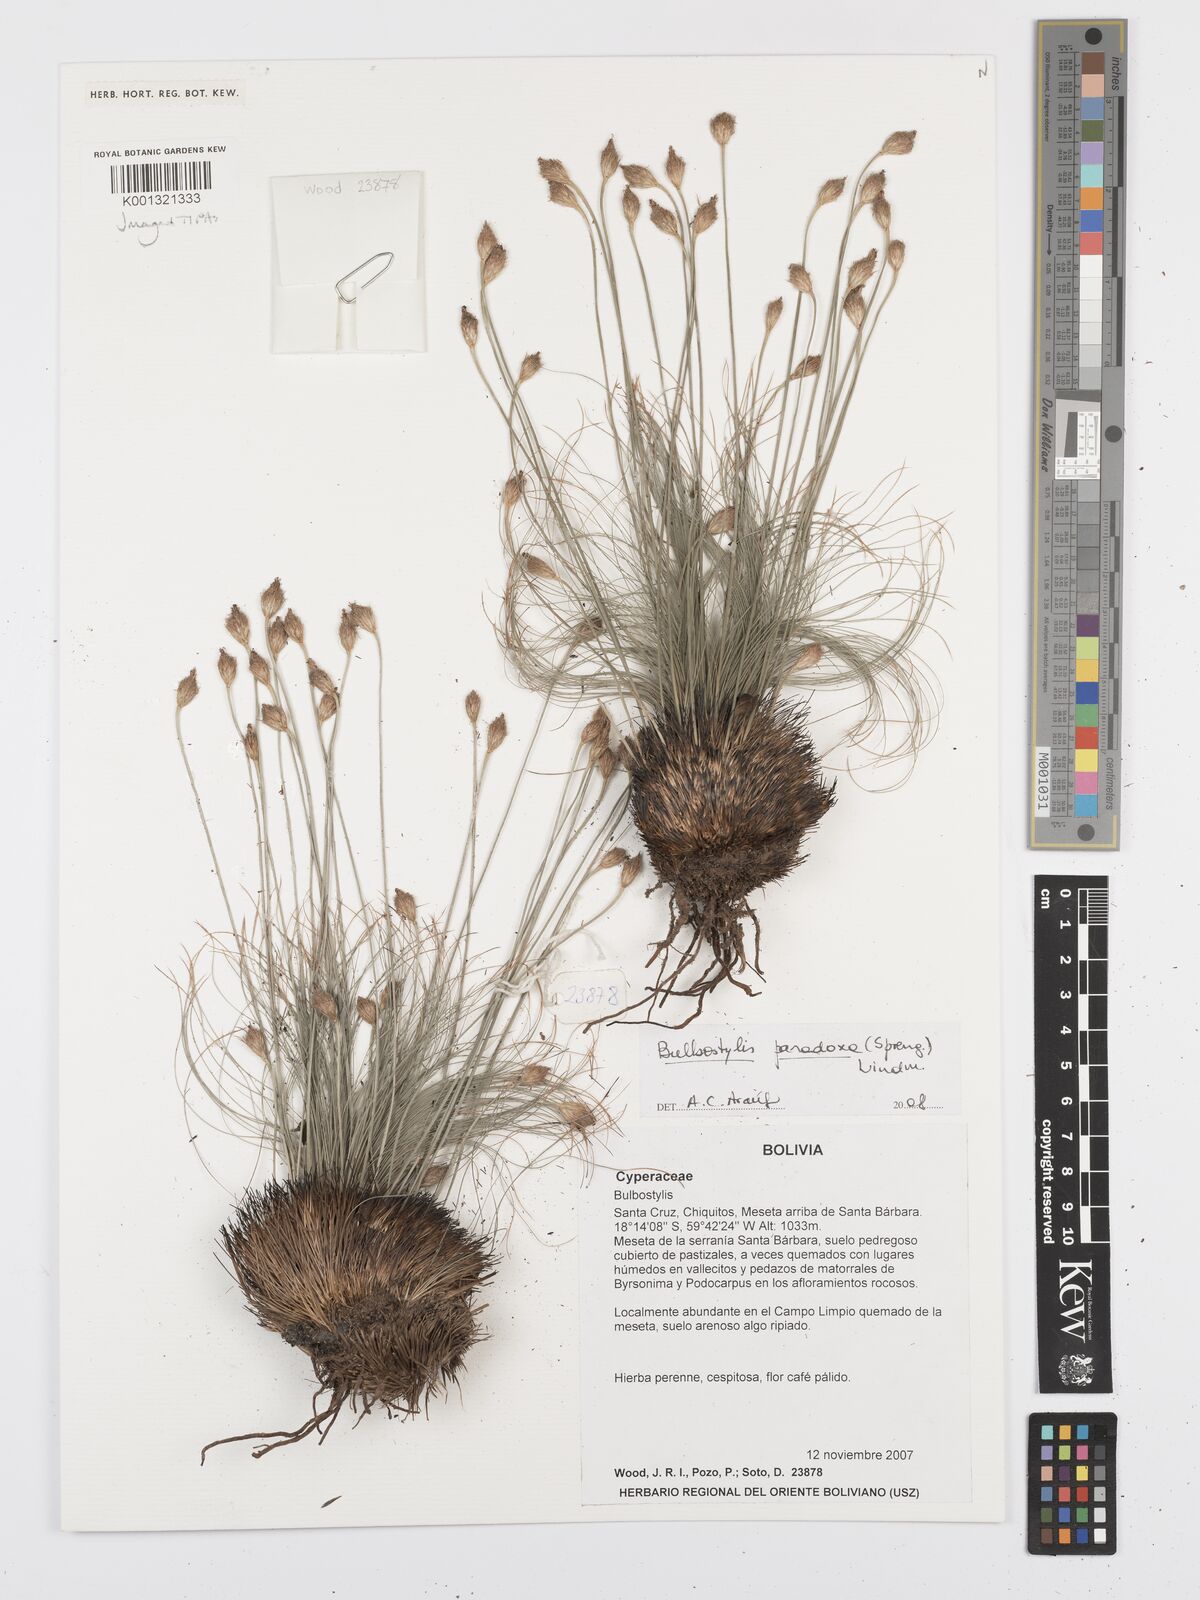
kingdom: Plantae
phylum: Tracheophyta
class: Liliopsida
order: Poales
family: Cyperaceae
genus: Bulbostylis
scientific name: Bulbostylis paradoxa
